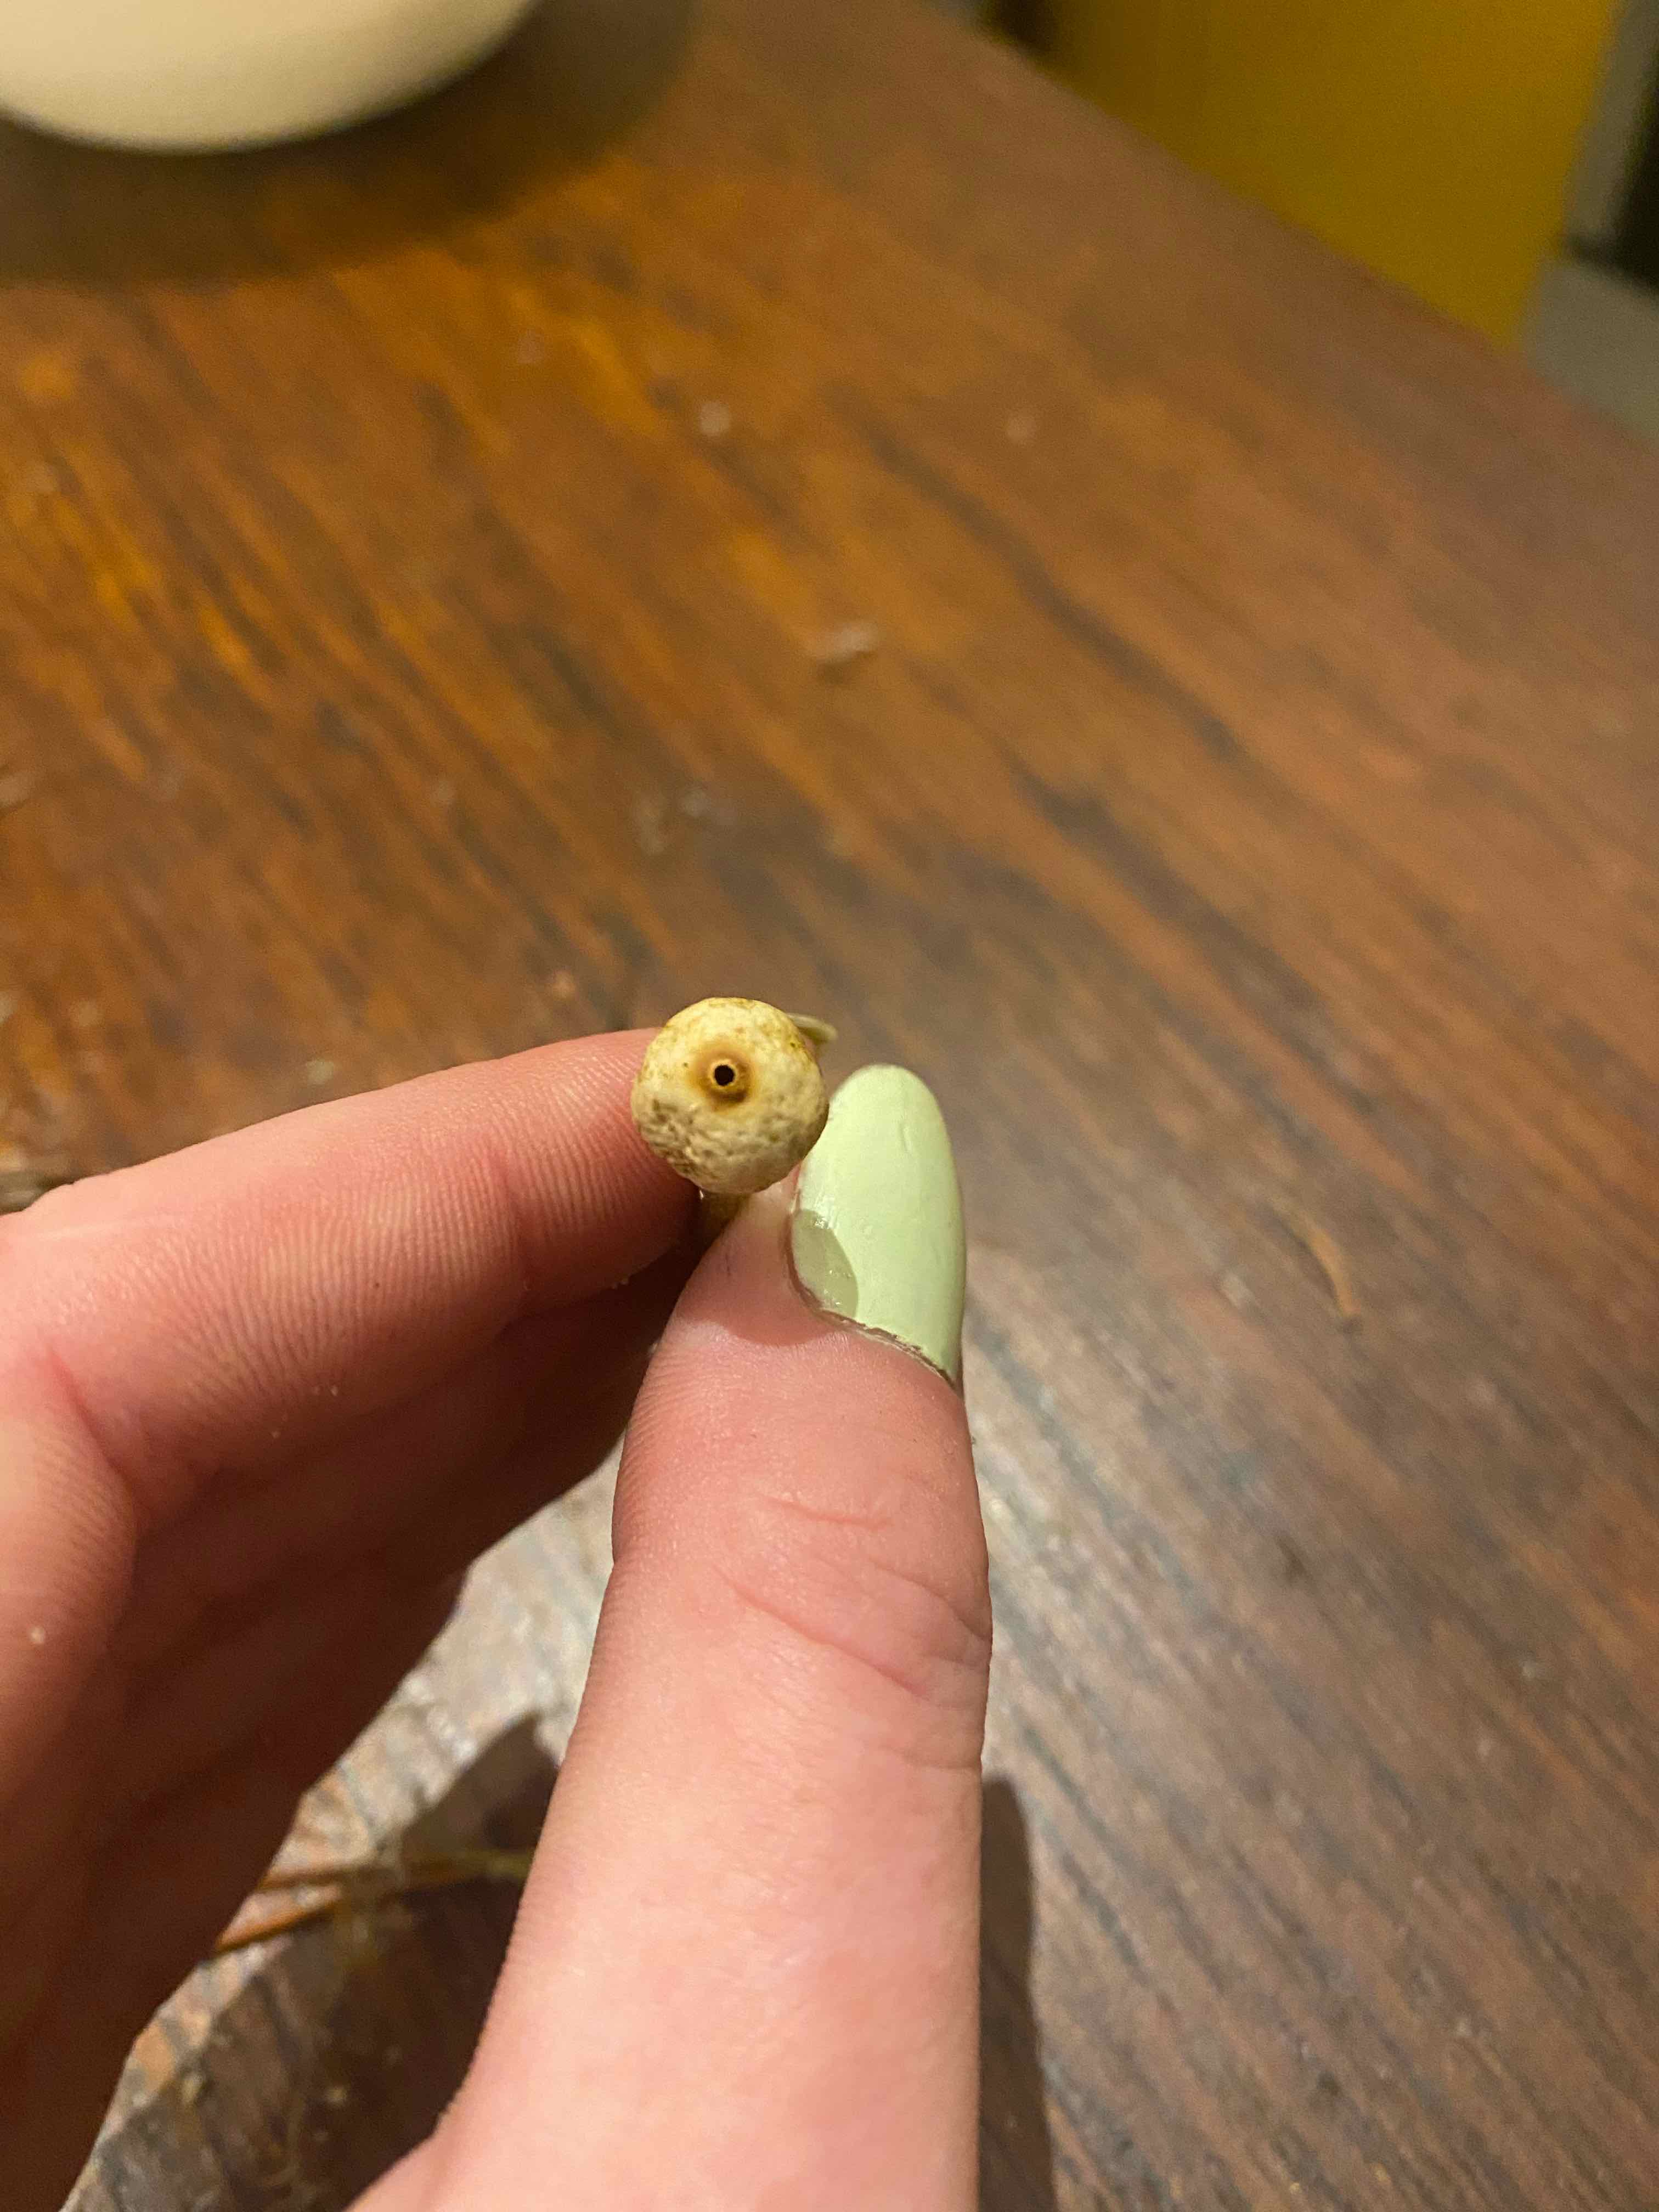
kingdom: Fungi
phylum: Basidiomycota
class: Agaricomycetes
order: Agaricales
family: Agaricaceae
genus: Tulostoma
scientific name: Tulostoma brumale
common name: vinter-stilkbovist
